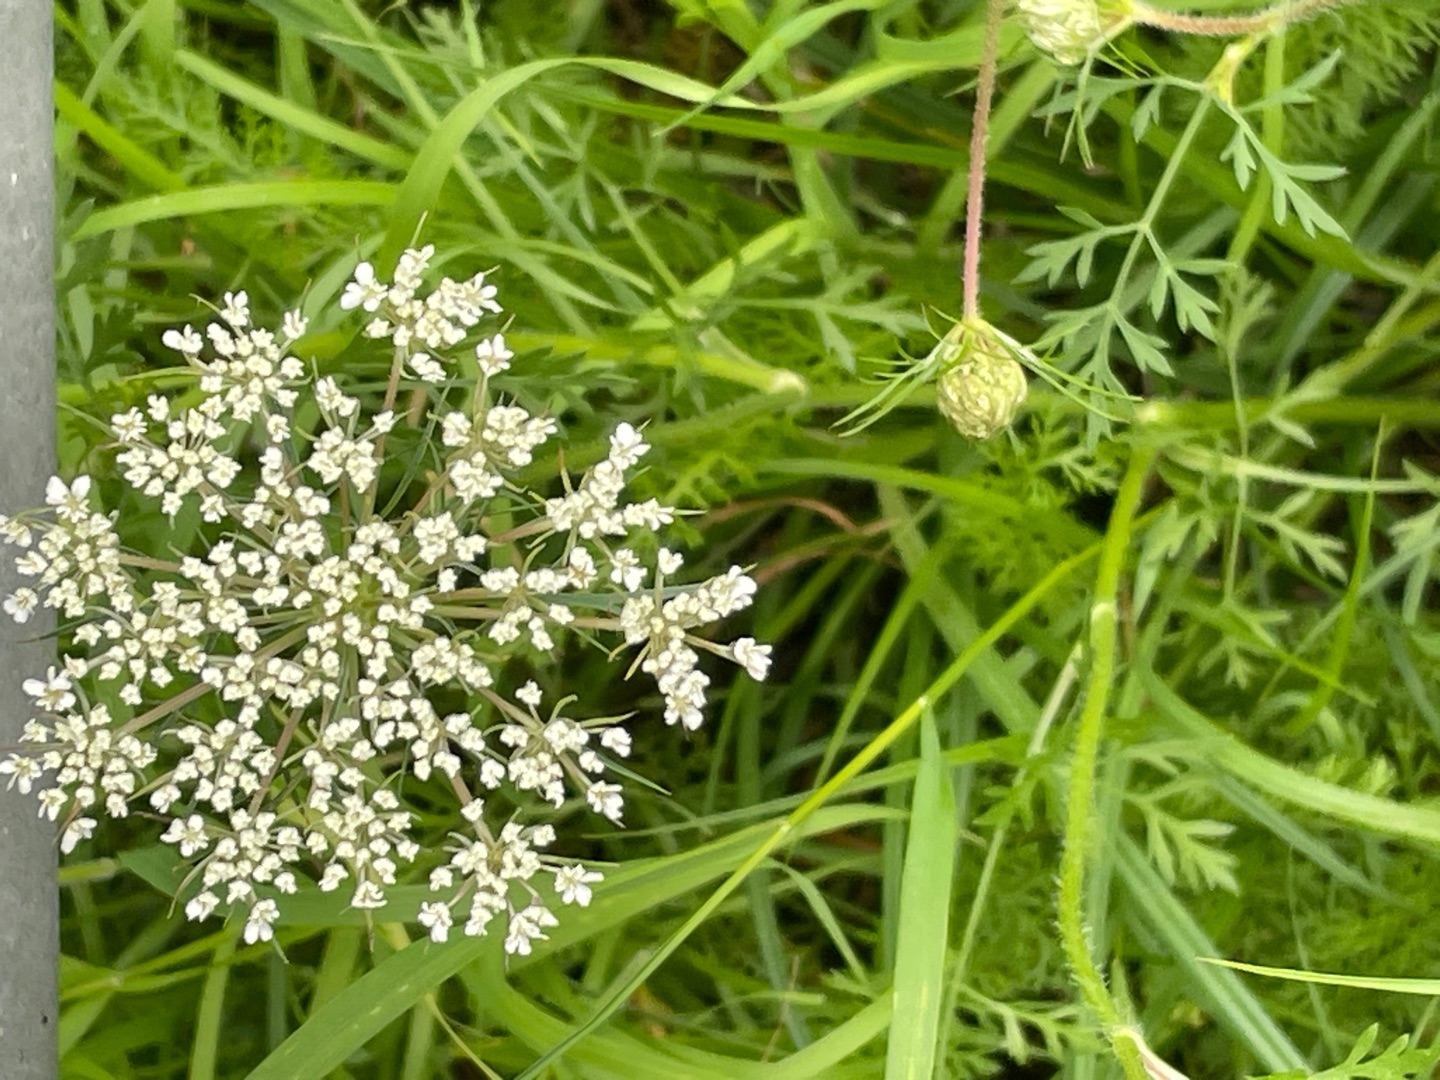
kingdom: Plantae
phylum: Tracheophyta
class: Magnoliopsida
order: Apiales
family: Apiaceae
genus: Daucus
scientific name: Daucus carota
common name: Gulerod
